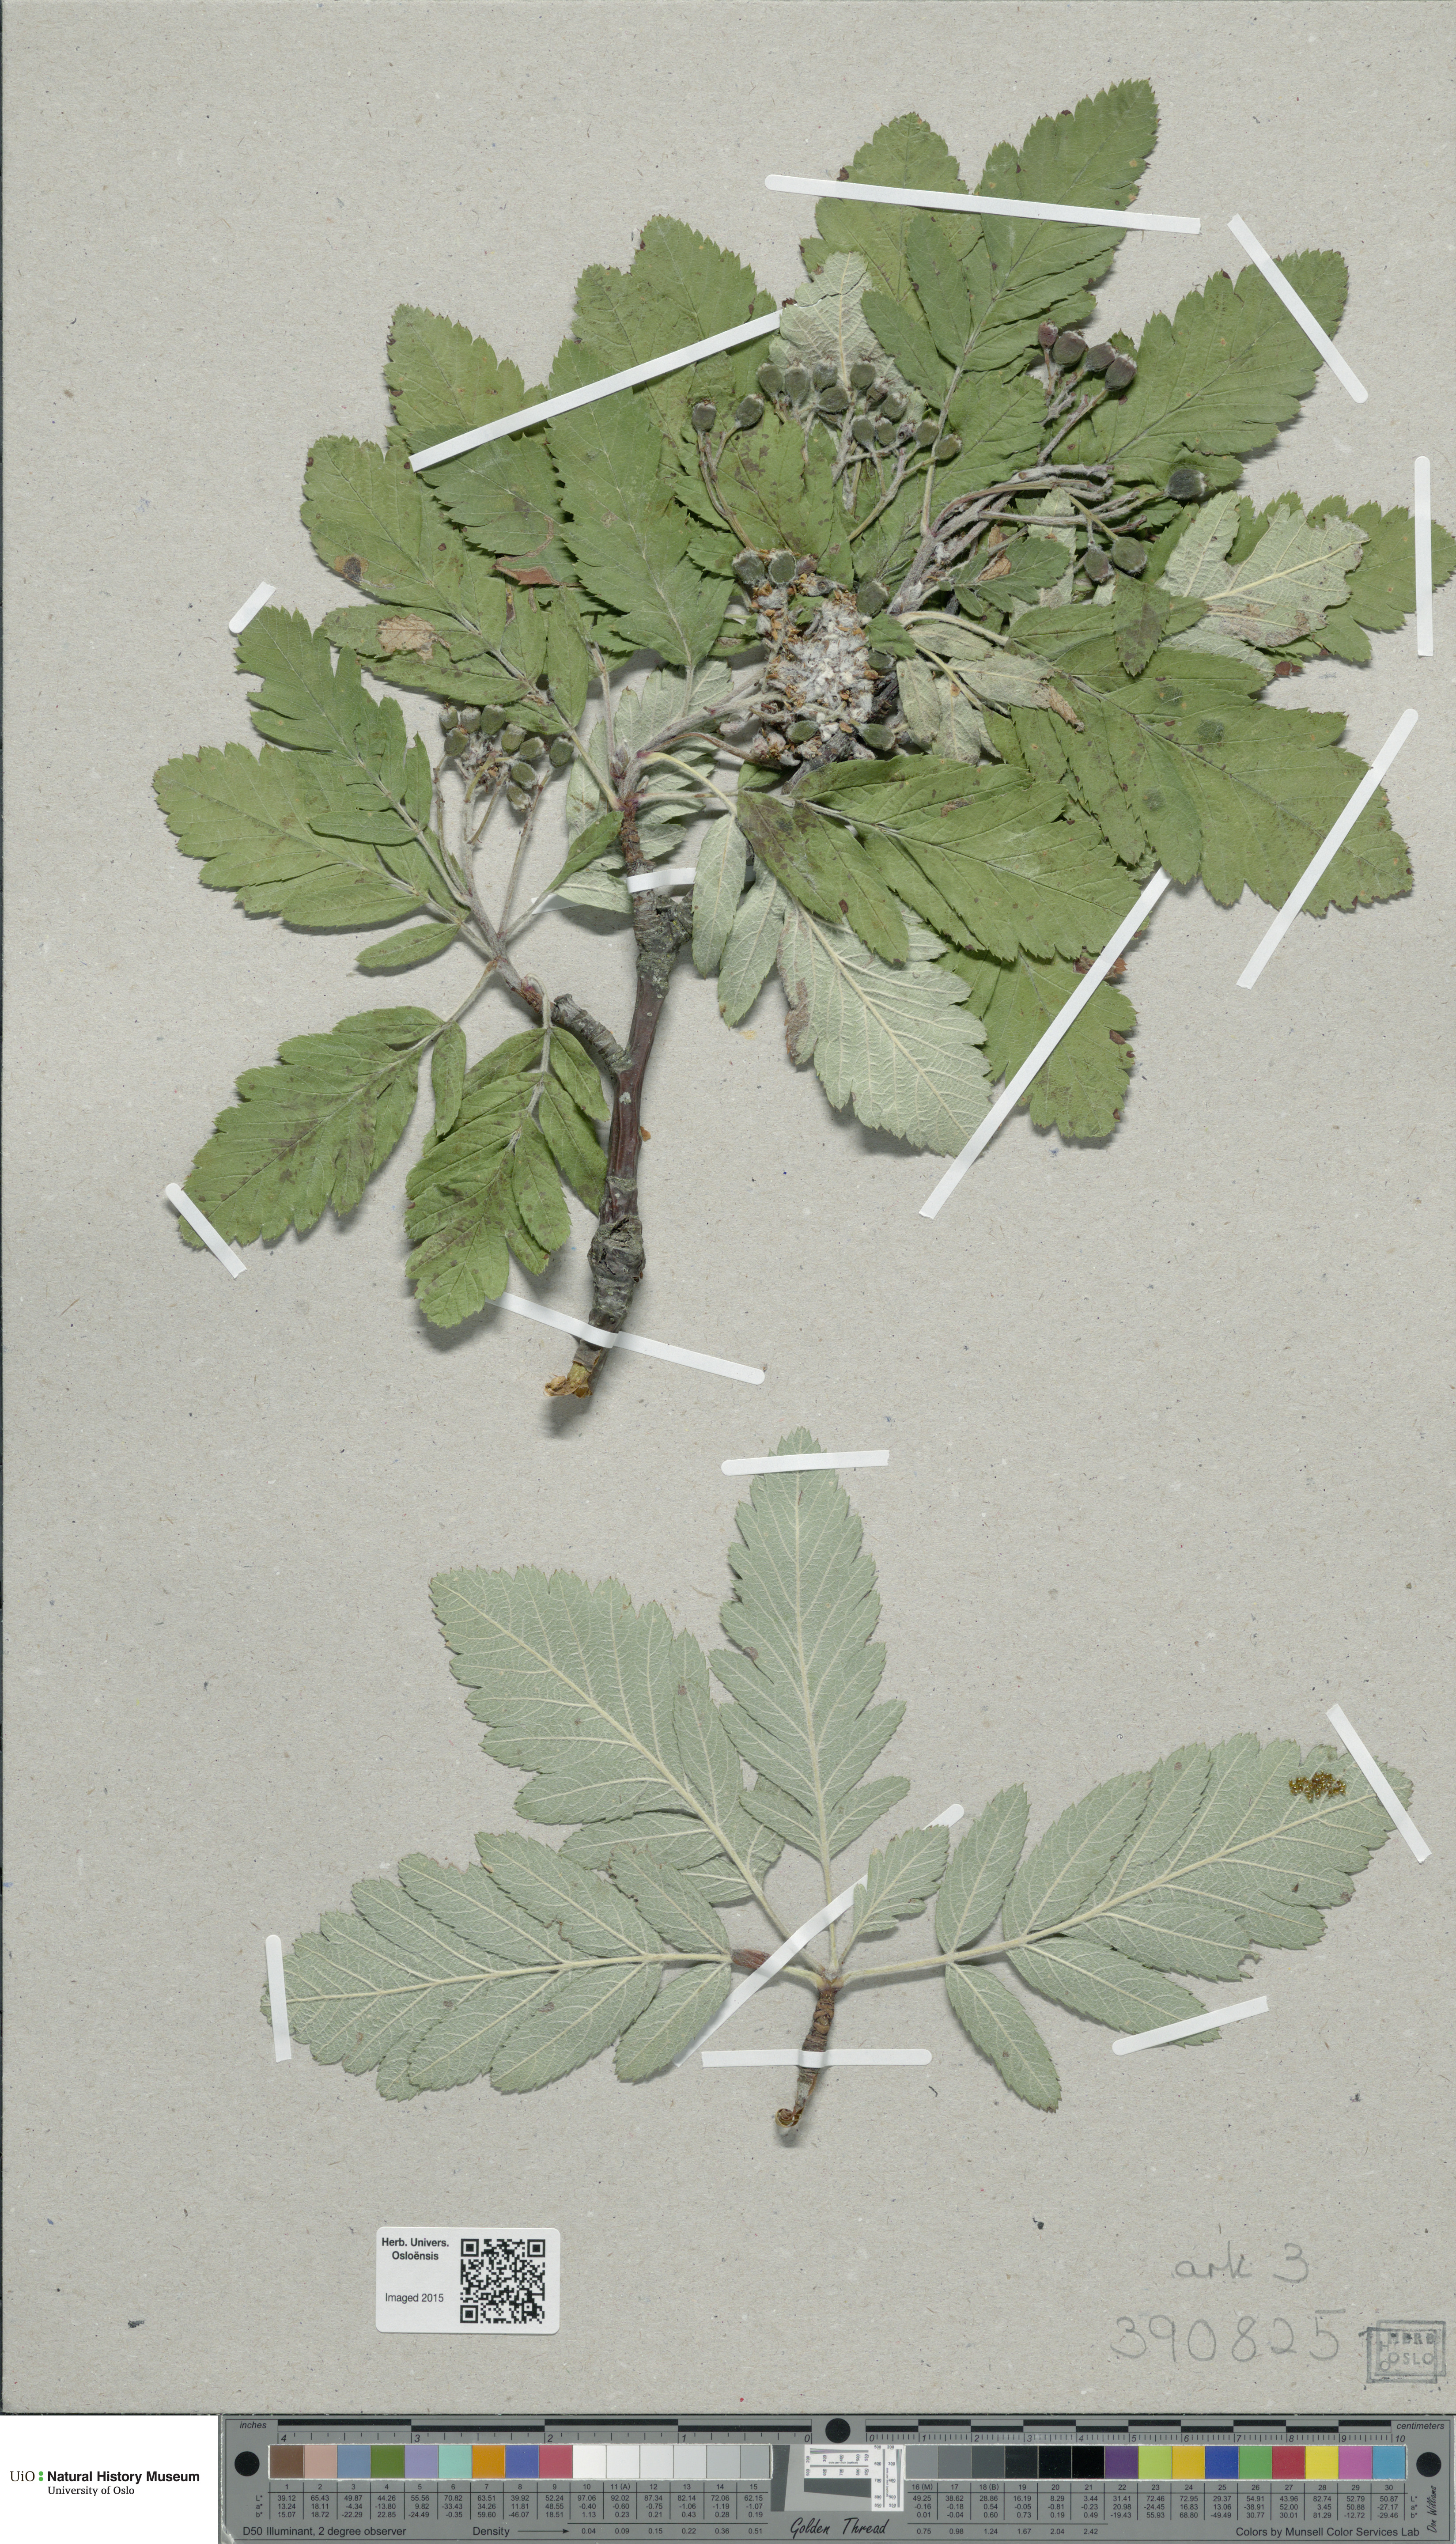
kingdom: Plantae
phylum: Tracheophyta
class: Magnoliopsida
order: Rosales
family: Rosaceae
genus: Aria
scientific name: Aria
